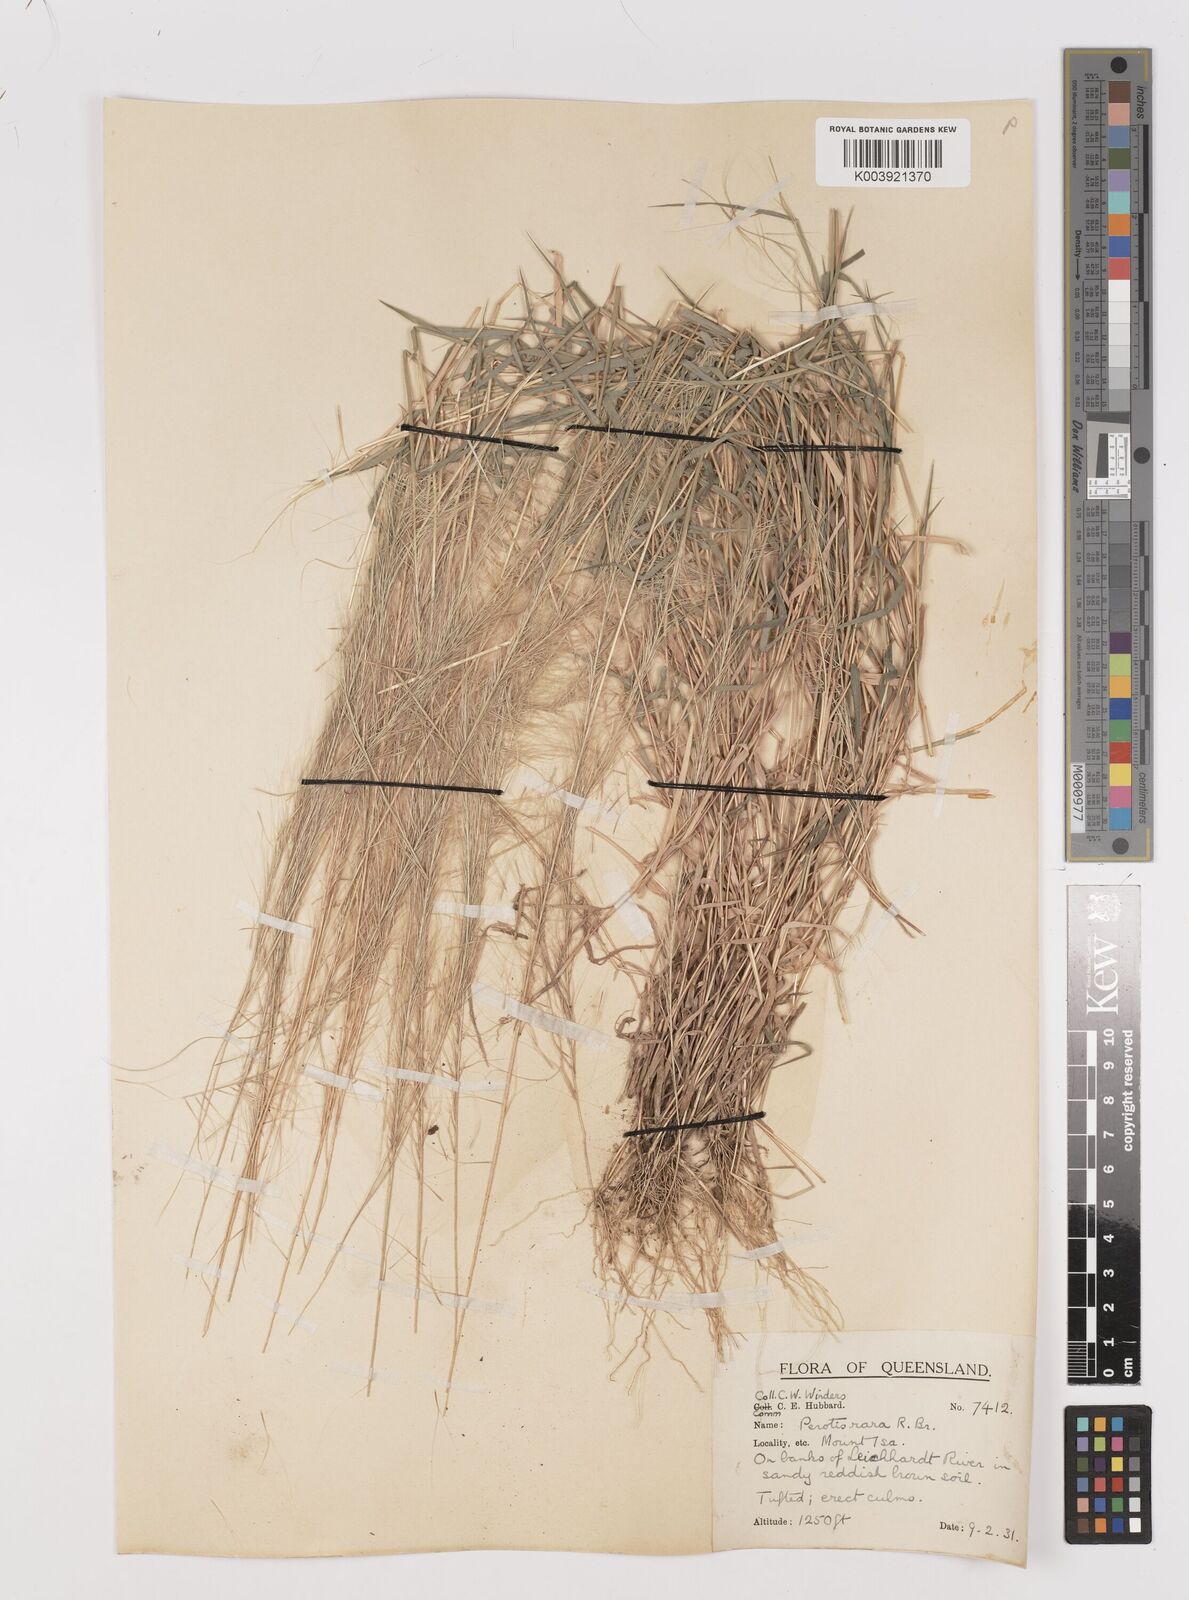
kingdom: Plantae
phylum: Tracheophyta
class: Liliopsida
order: Poales
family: Poaceae
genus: Perotis
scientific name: Perotis rara
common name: Comet grass
